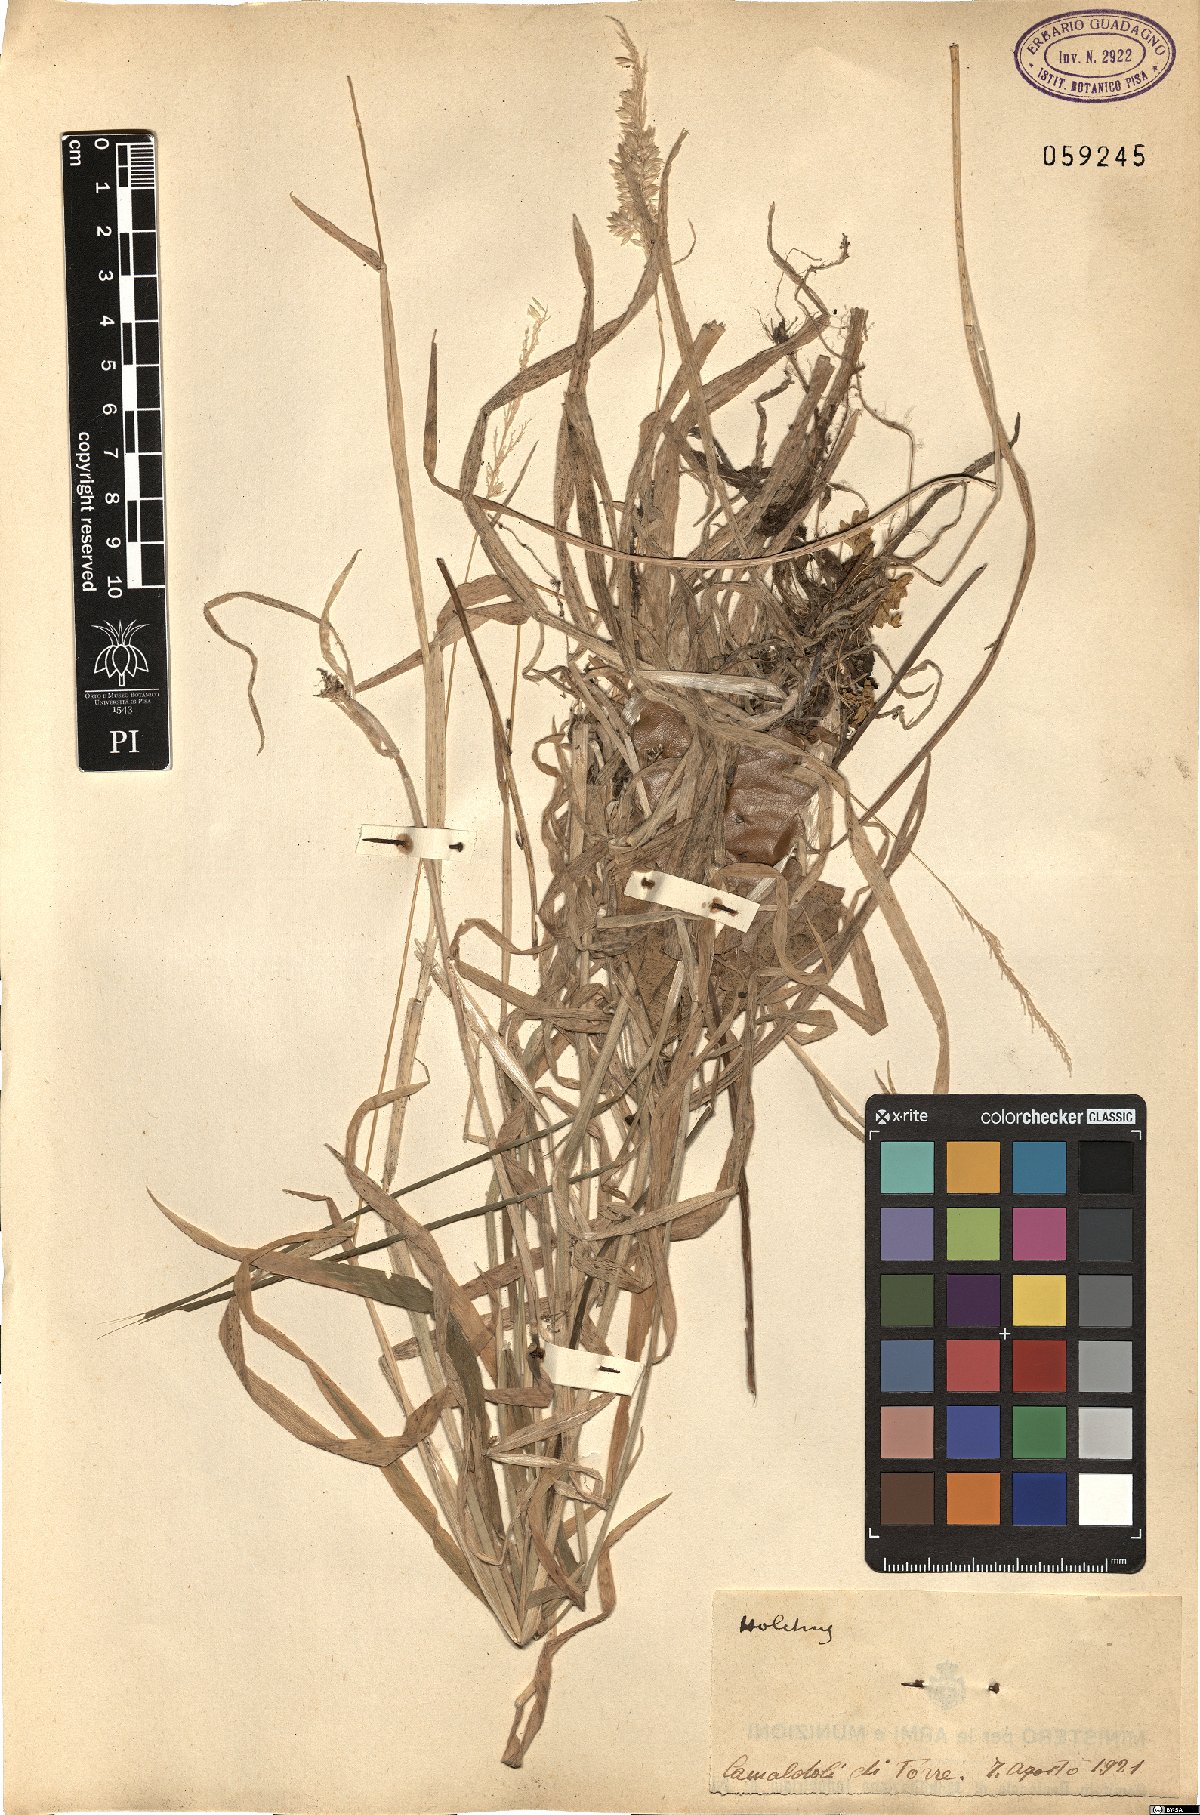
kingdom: Plantae
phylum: Tracheophyta
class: Liliopsida
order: Poales
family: Poaceae
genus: Holcus
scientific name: Holcus
